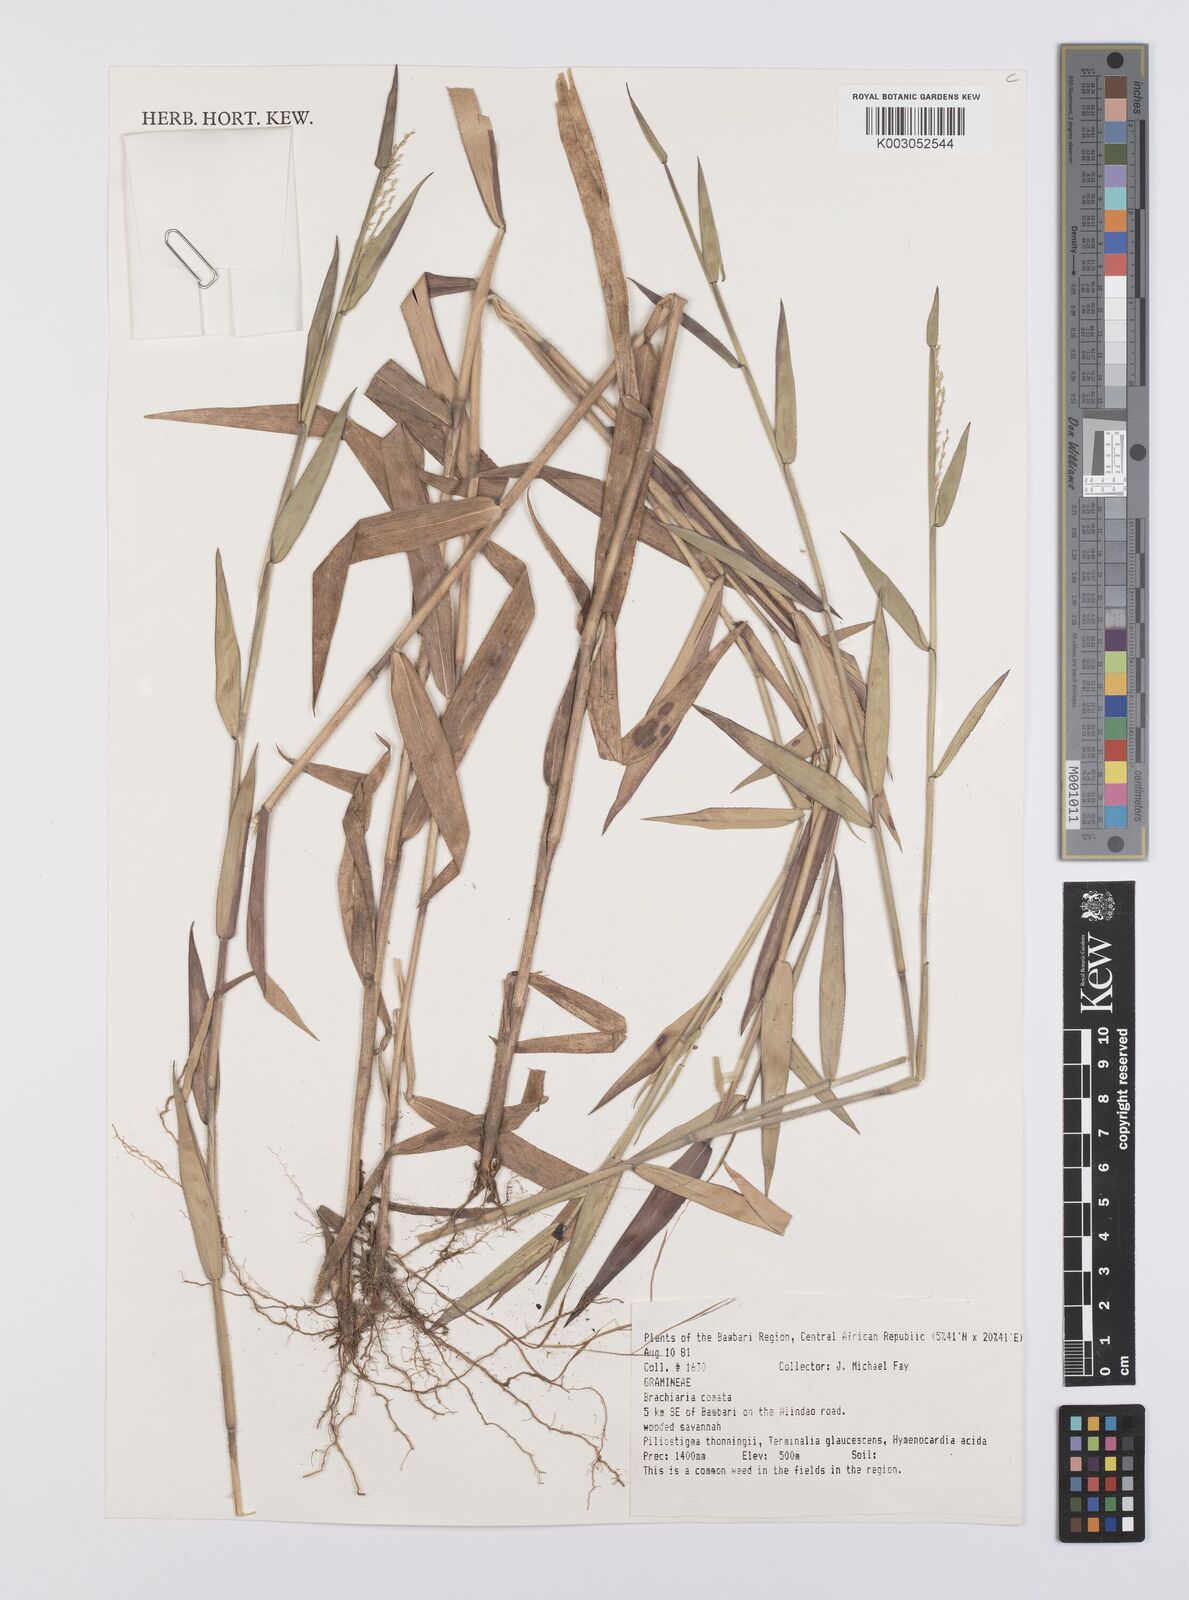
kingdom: Plantae
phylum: Tracheophyta
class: Liliopsida
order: Poales
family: Poaceae
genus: Urochloa
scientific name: Urochloa comata
